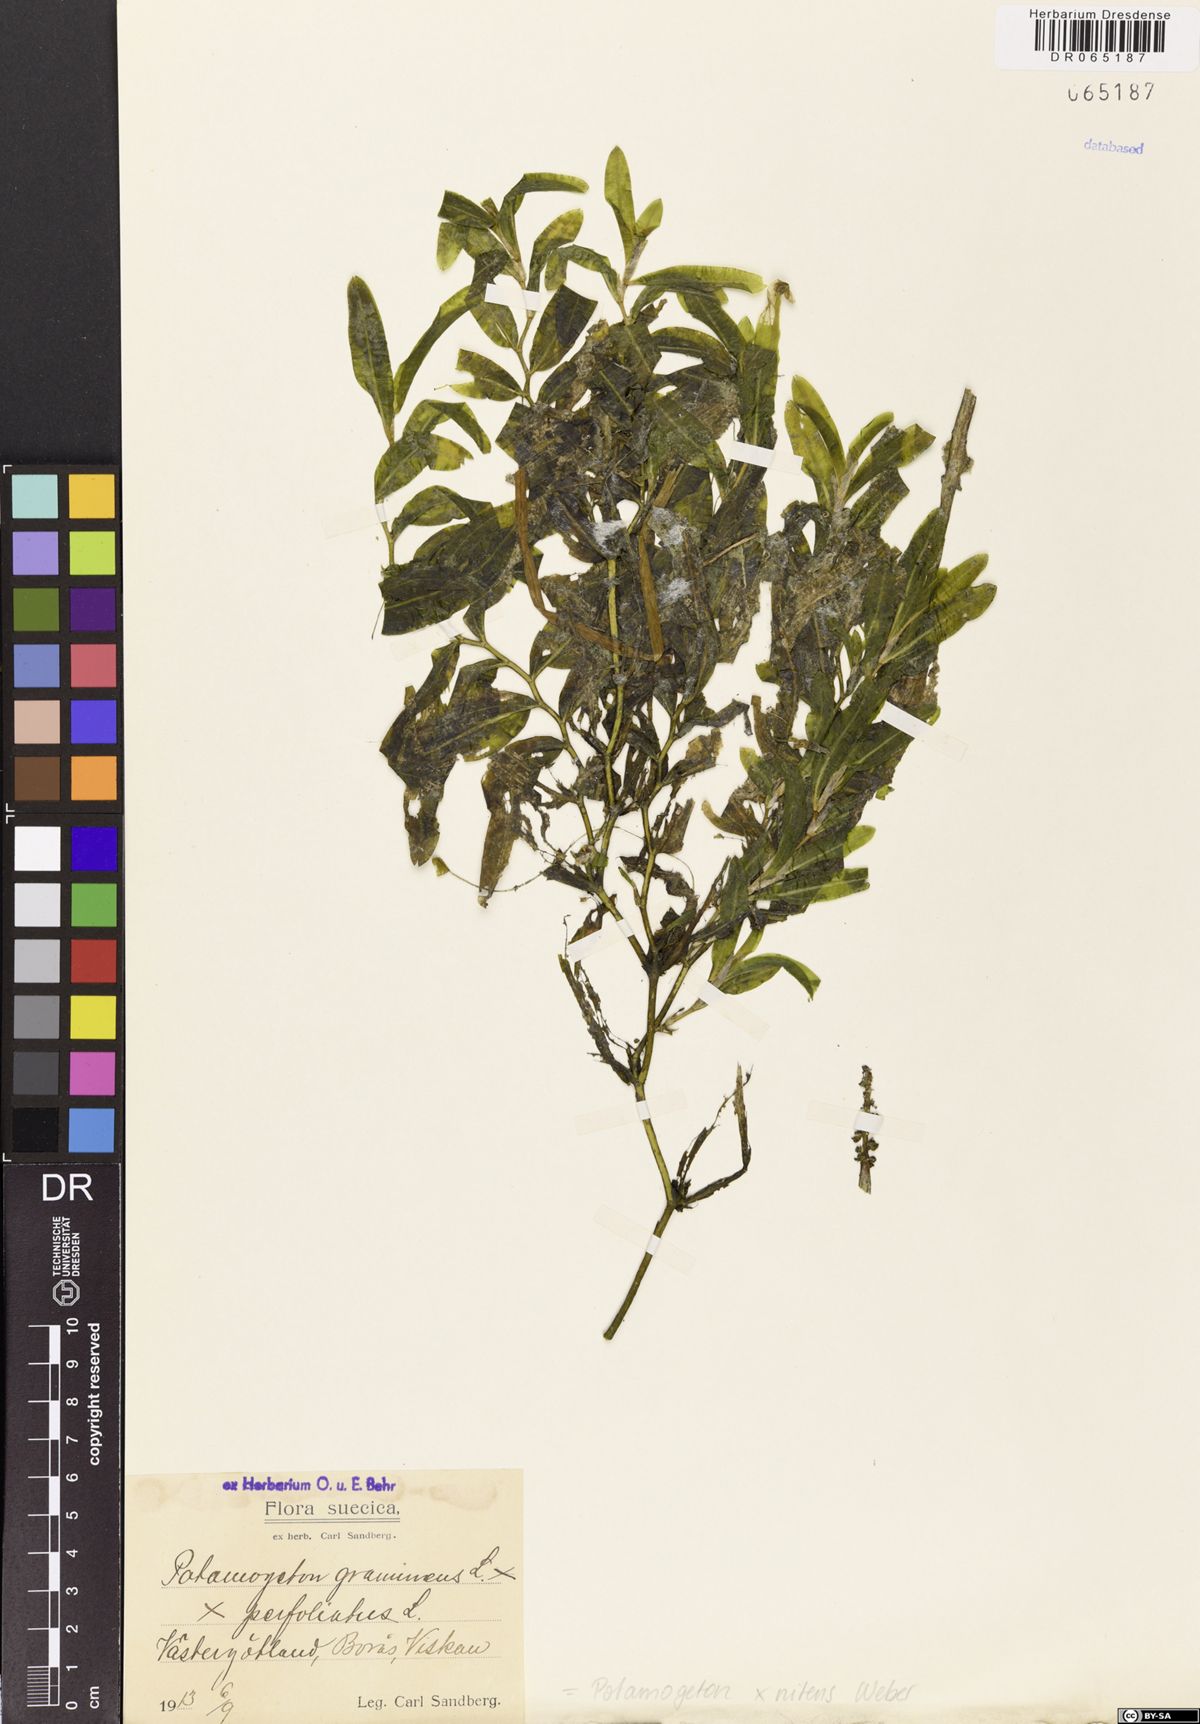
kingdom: Plantae
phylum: Tracheophyta
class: Liliopsida
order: Alismatales
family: Potamogetonaceae
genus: Potamogeton
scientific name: Potamogeton nitens
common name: Pondweed
